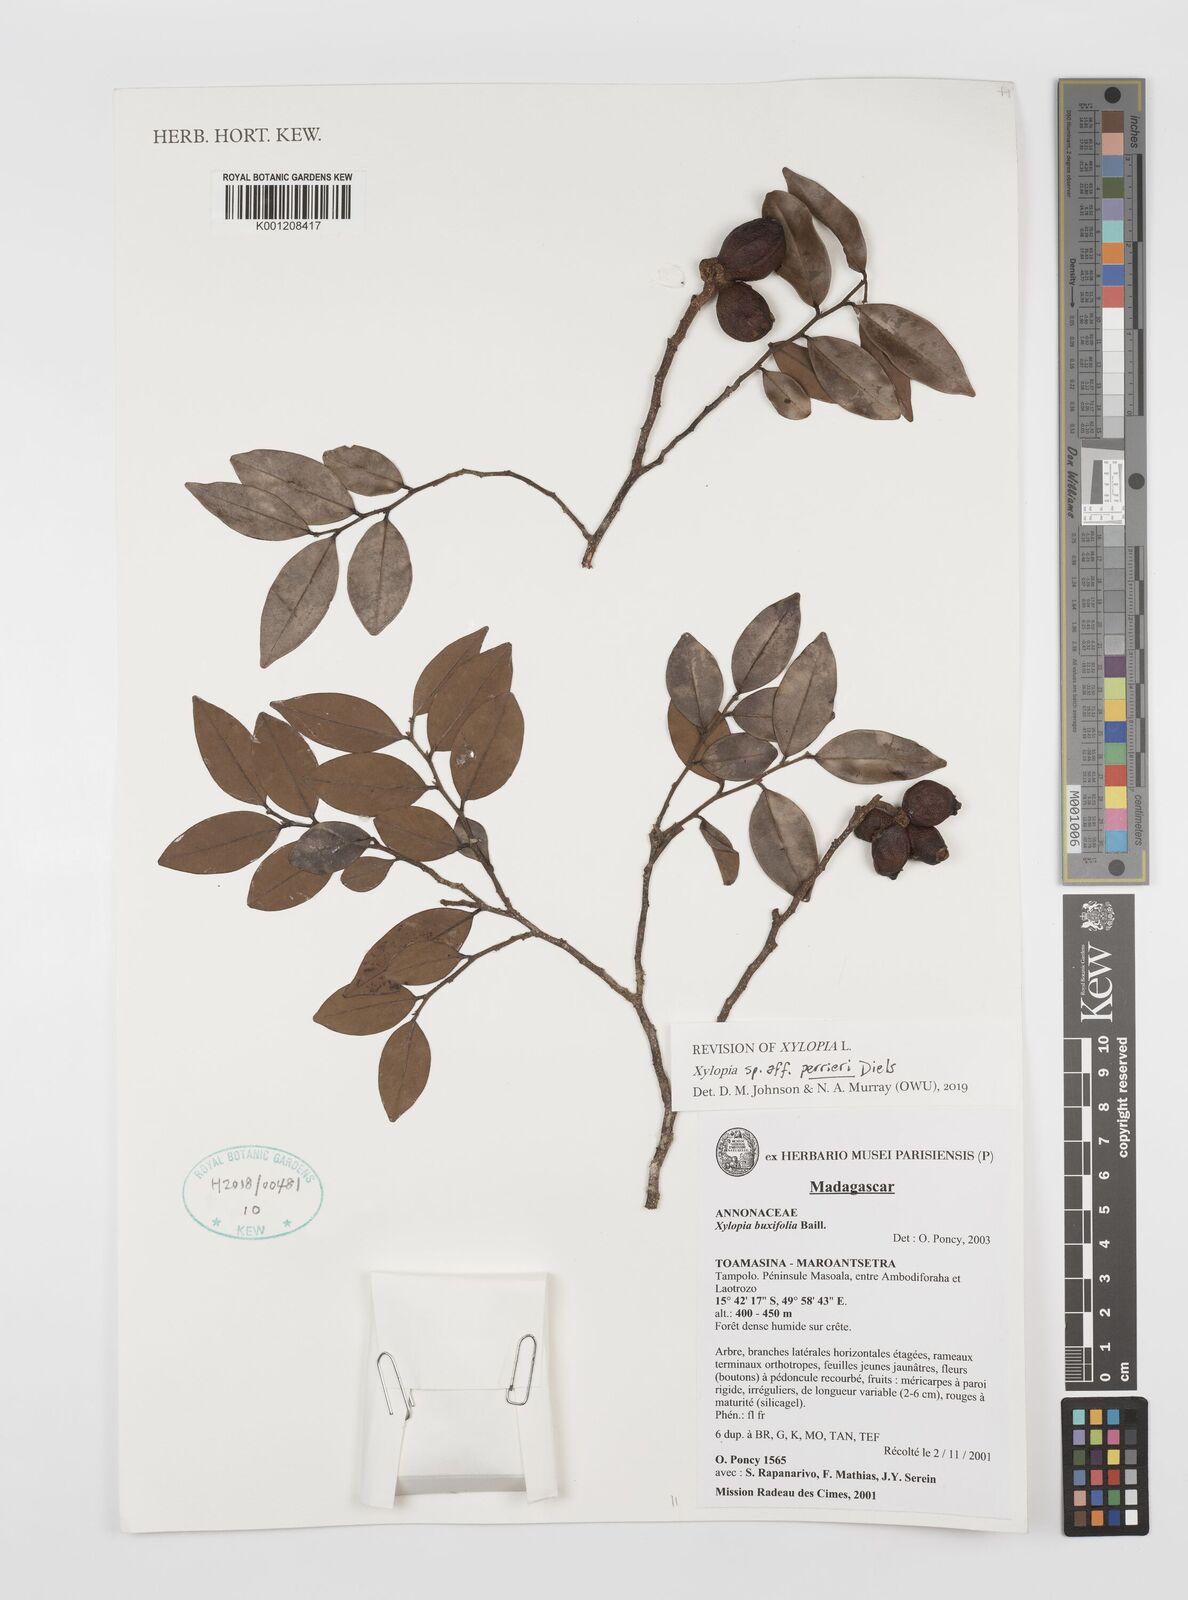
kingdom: Plantae
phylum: Tracheophyta
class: Magnoliopsida
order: Magnoliales
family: Annonaceae
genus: Xylopia
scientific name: Xylopia buxifolia
